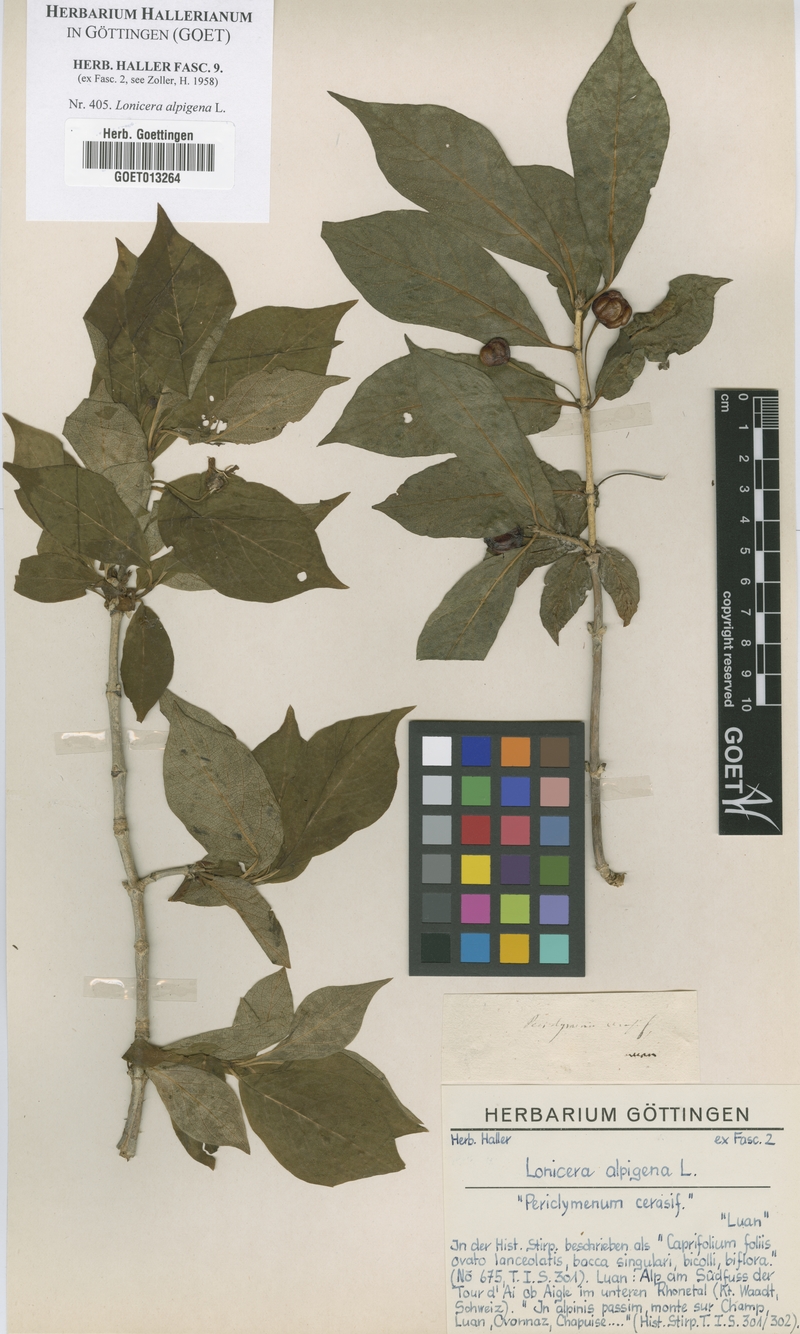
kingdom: Plantae
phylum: Tracheophyta
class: Magnoliopsida
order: Dipsacales
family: Caprifoliaceae
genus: Lonicera
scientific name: Lonicera alpigena
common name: Alpine honeysuckle
